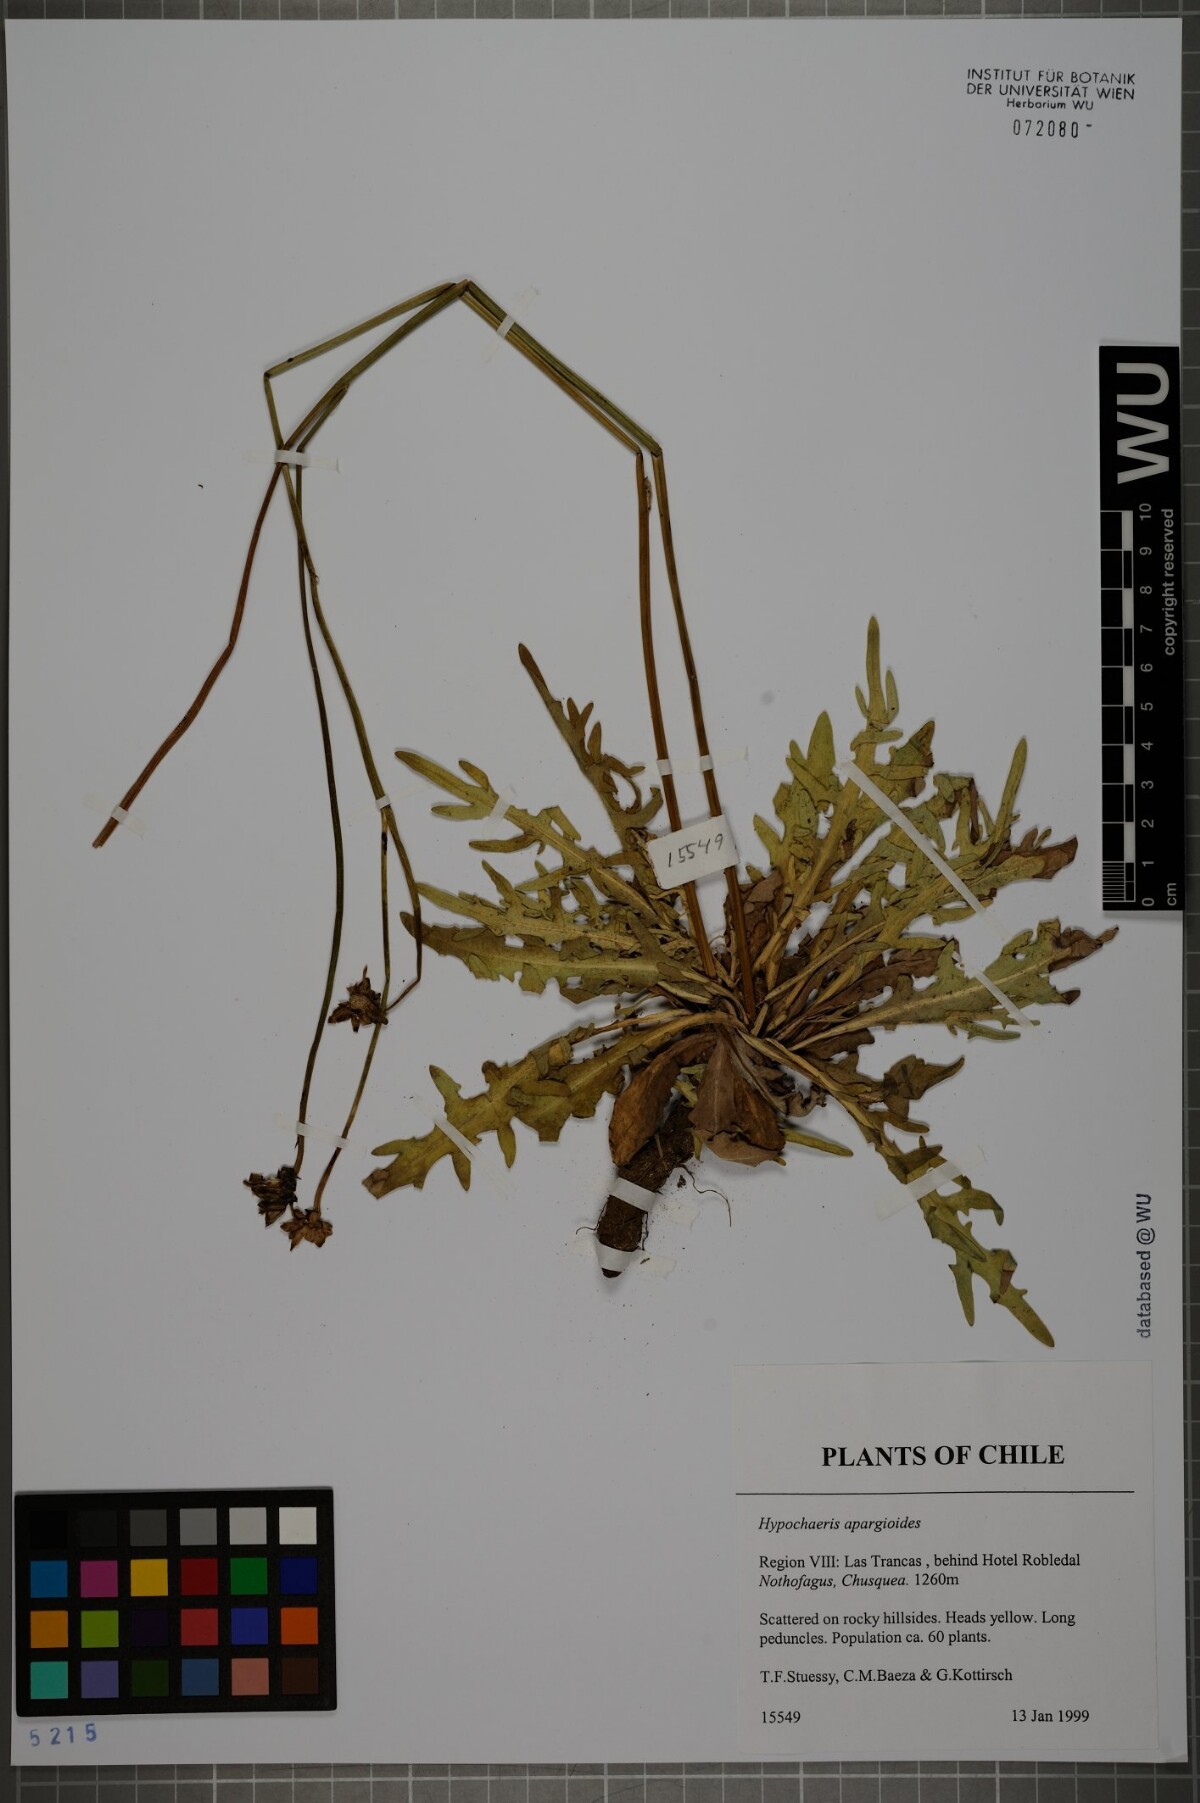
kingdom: Plantae
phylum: Tracheophyta
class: Magnoliopsida
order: Asterales
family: Asteraceae
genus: Hypochaeris
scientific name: Hypochaeris apargioides
